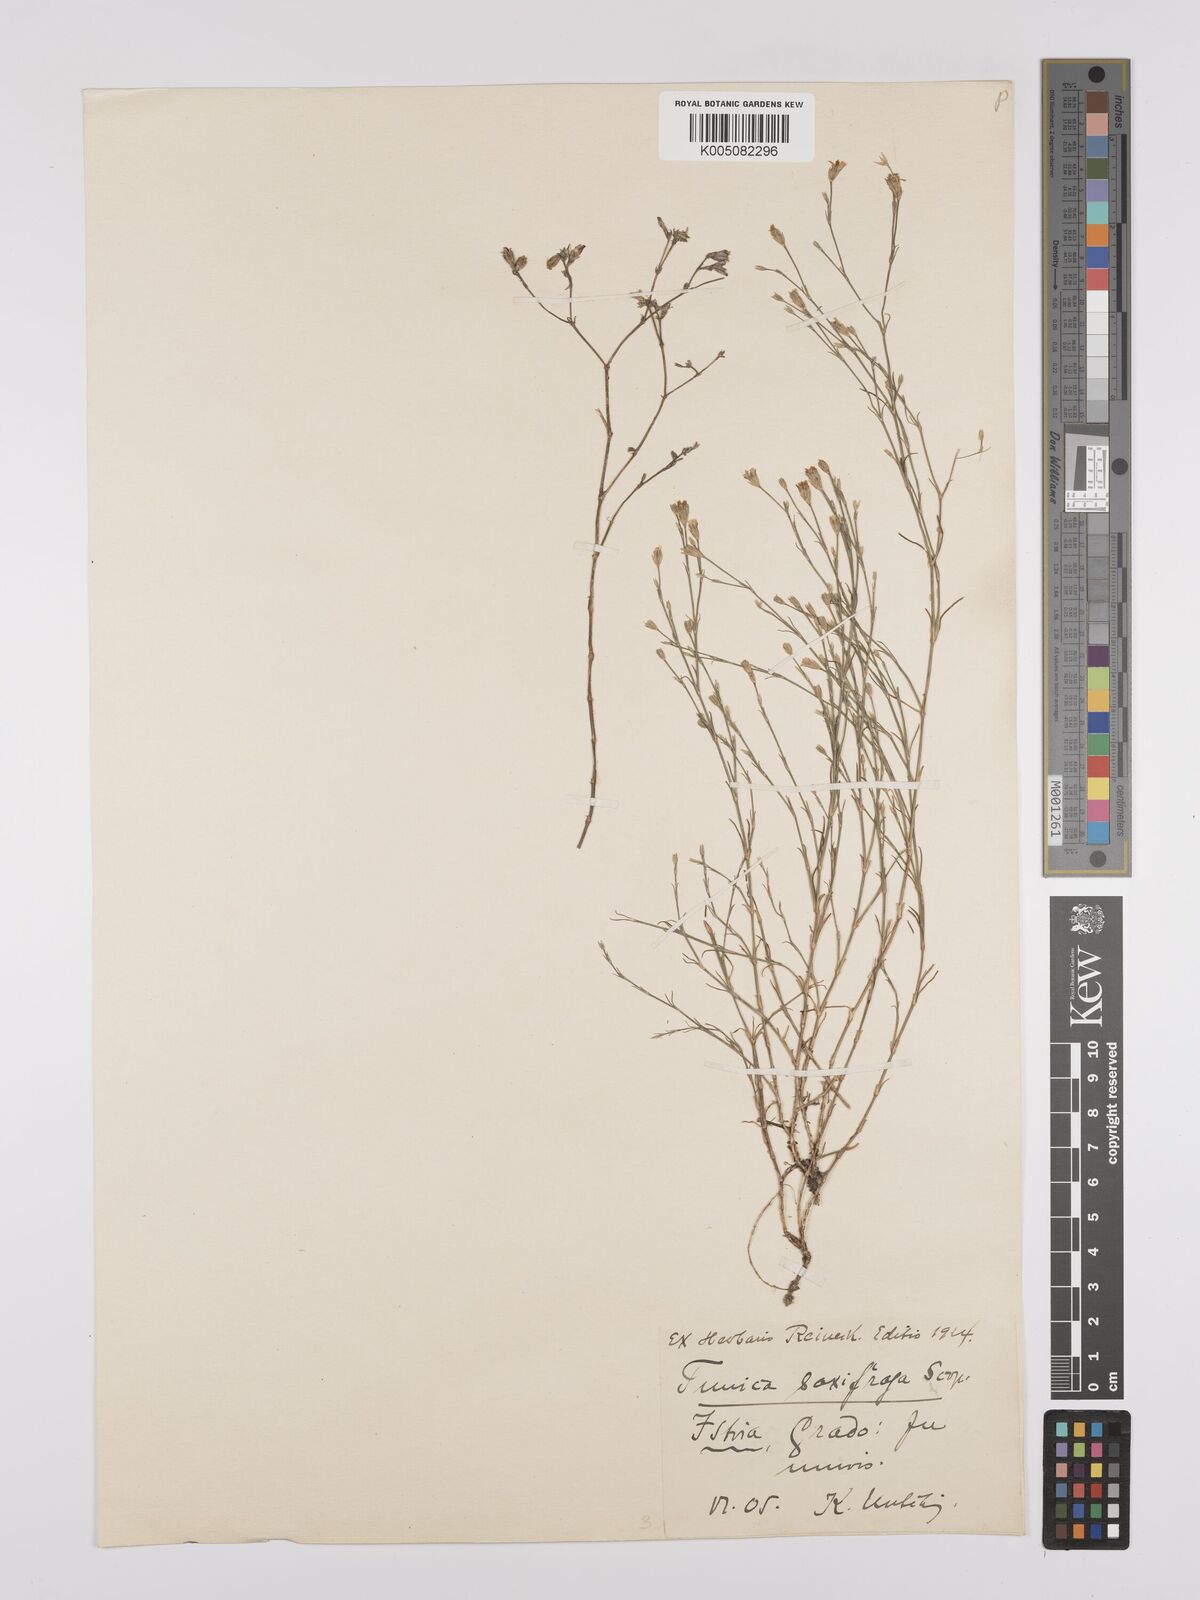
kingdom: Plantae
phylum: Tracheophyta
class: Magnoliopsida
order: Caryophyllales
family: Caryophyllaceae
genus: Petrorhagia
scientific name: Petrorhagia saxifraga
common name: Tunicflower
